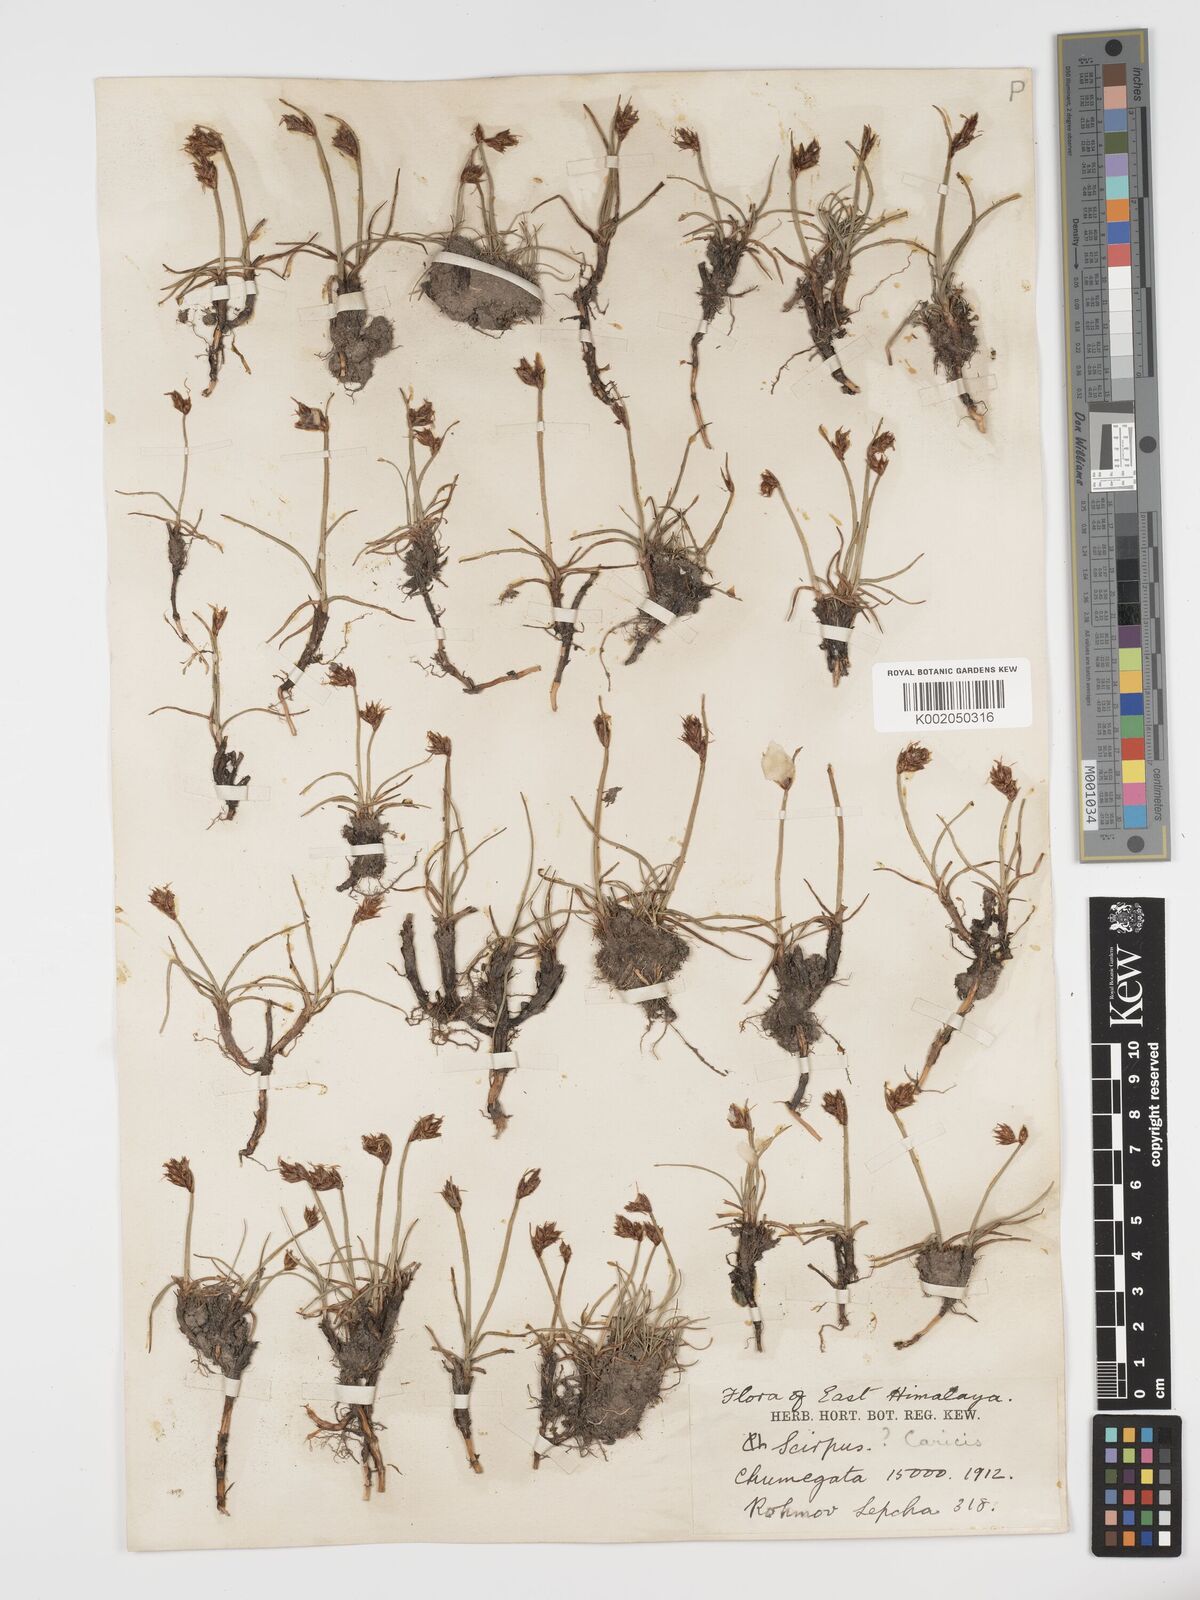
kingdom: Plantae
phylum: Tracheophyta
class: Liliopsida
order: Poales
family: Cyperaceae
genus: Blysmus
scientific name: Blysmus compressus
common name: Flat-sedge
